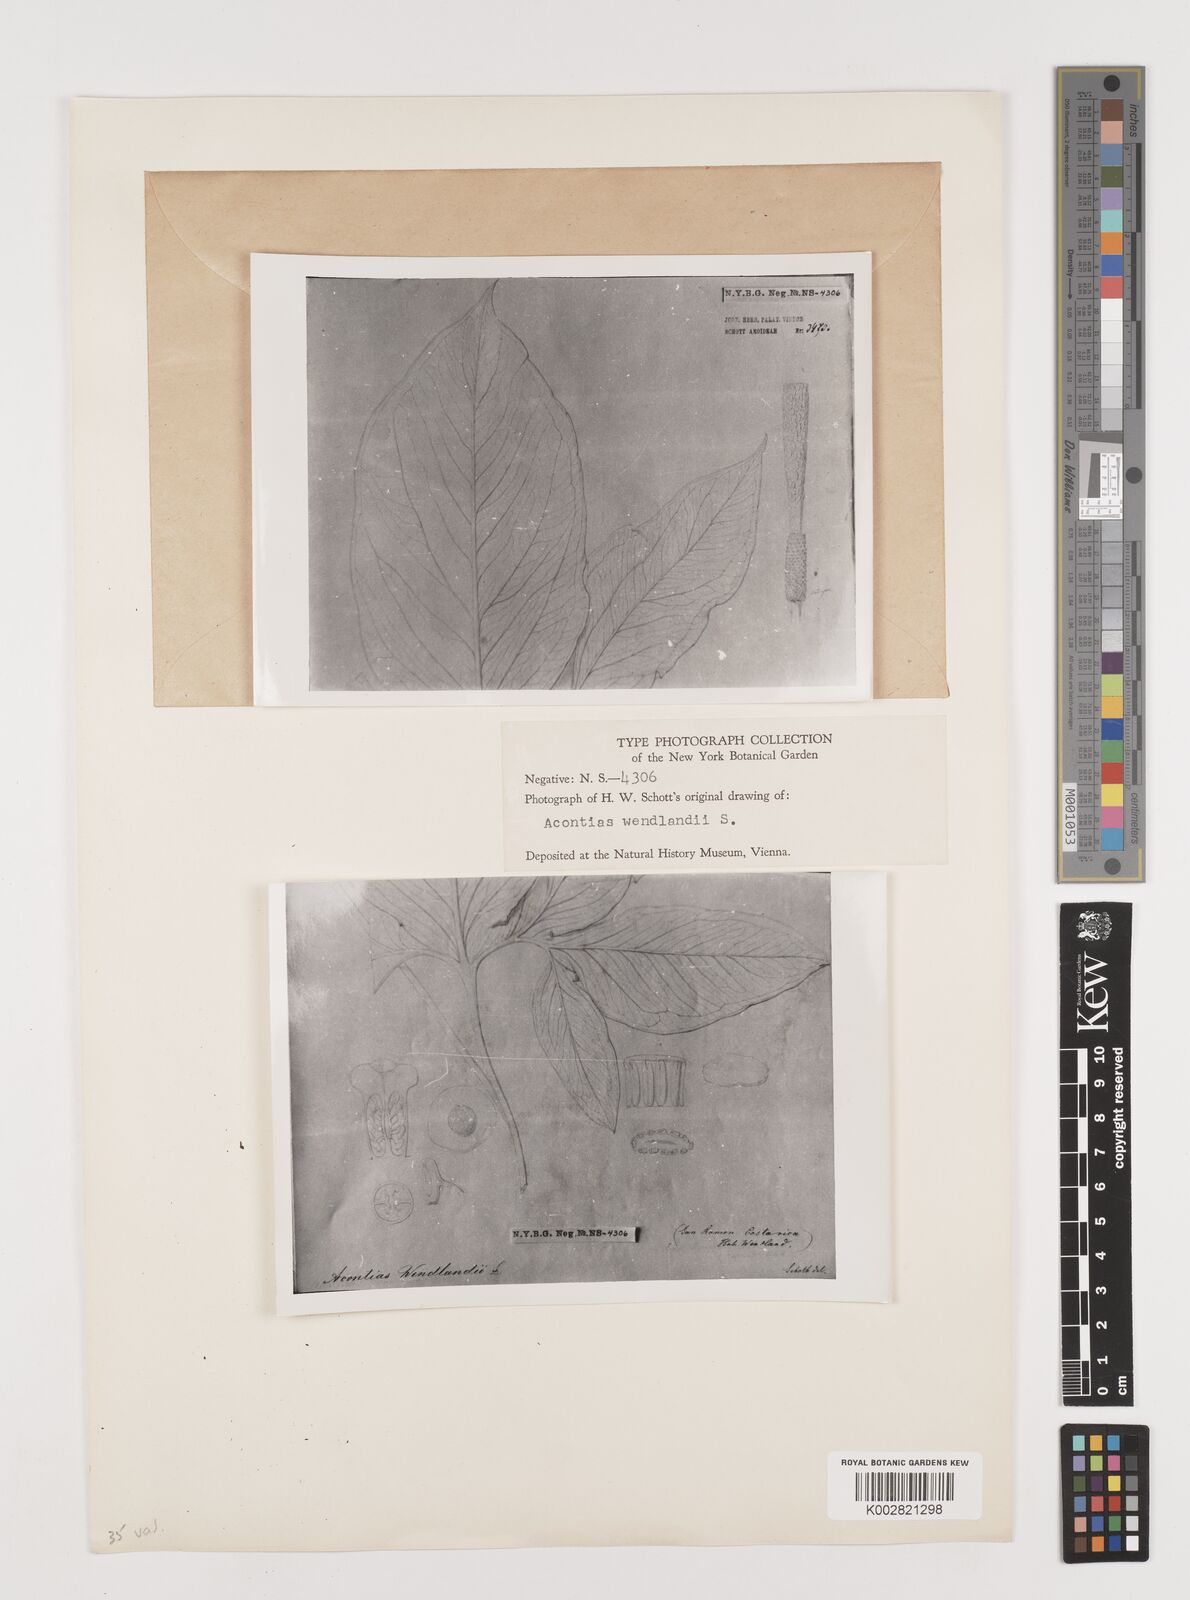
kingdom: Plantae
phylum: Tracheophyta
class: Liliopsida
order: Alismatales
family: Araceae
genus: Xanthosoma
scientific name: Xanthosoma wendlandii
